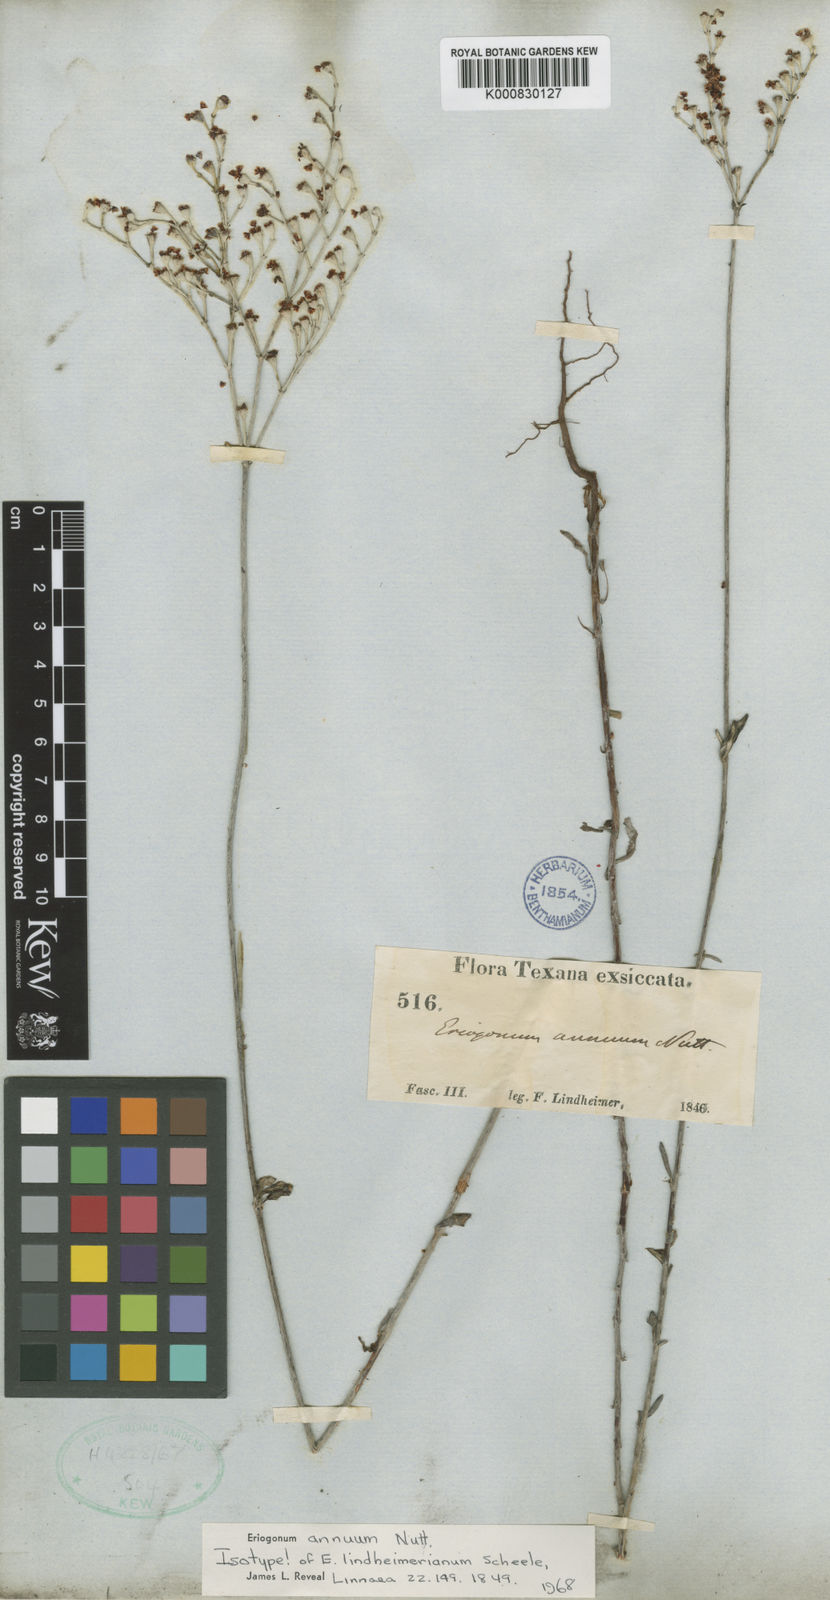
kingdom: Plantae
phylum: Tracheophyta
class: Magnoliopsida
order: Caryophyllales
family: Polygonaceae
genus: Eriogonum
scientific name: Eriogonum annuum
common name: Annual wild buckwheat
